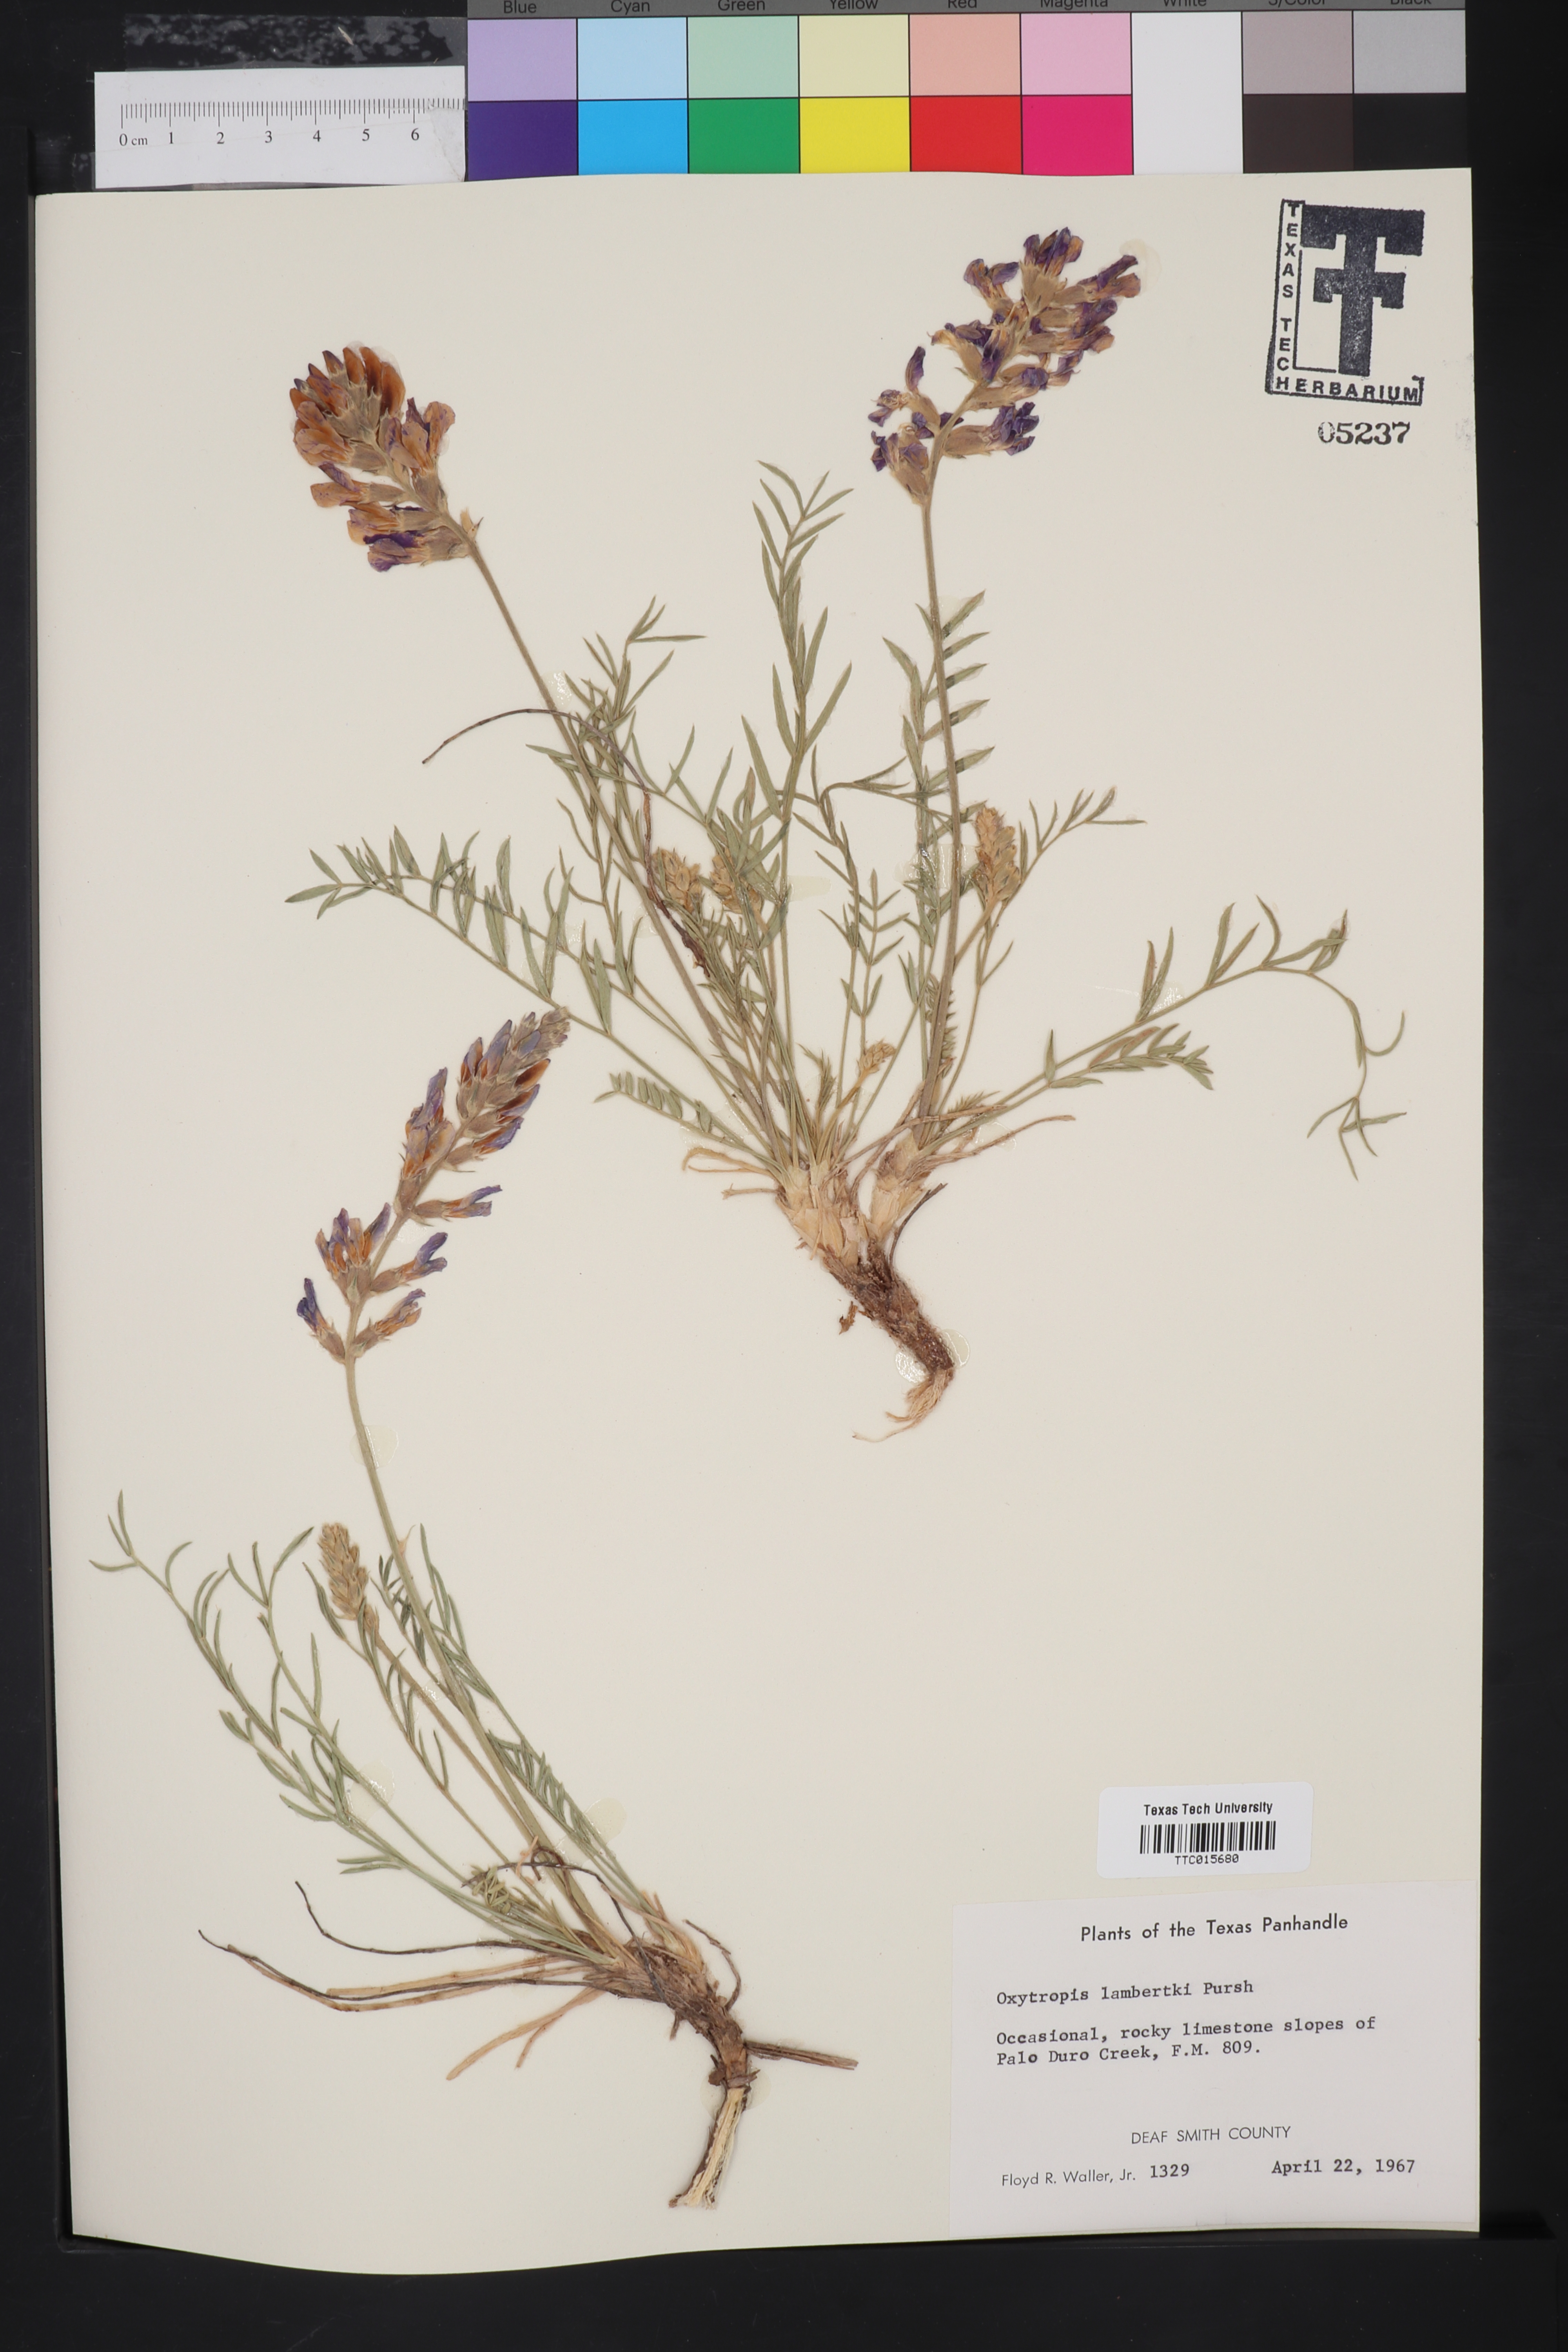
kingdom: Plantae
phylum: Tracheophyta
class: Magnoliopsida
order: Fabales
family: Fabaceae
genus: Oxytropis
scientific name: Oxytropis lambertii
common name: Purple locoweed
